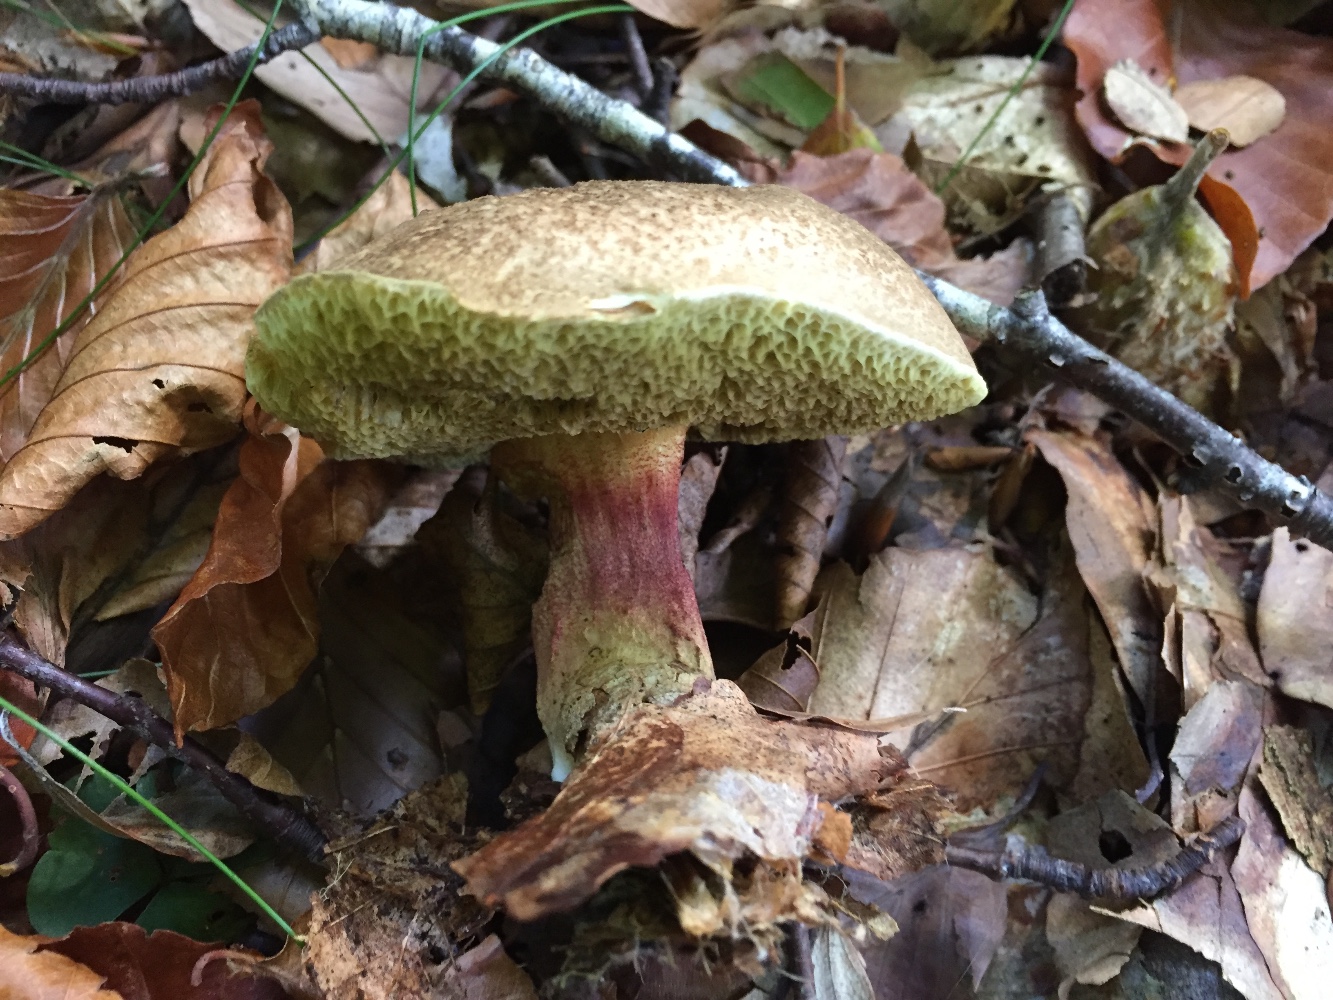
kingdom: Fungi
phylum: Basidiomycota
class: Agaricomycetes
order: Boletales
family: Boletaceae
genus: Xerocomellus
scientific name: Xerocomellus chrysenteron
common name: rødsprukken rørhat
